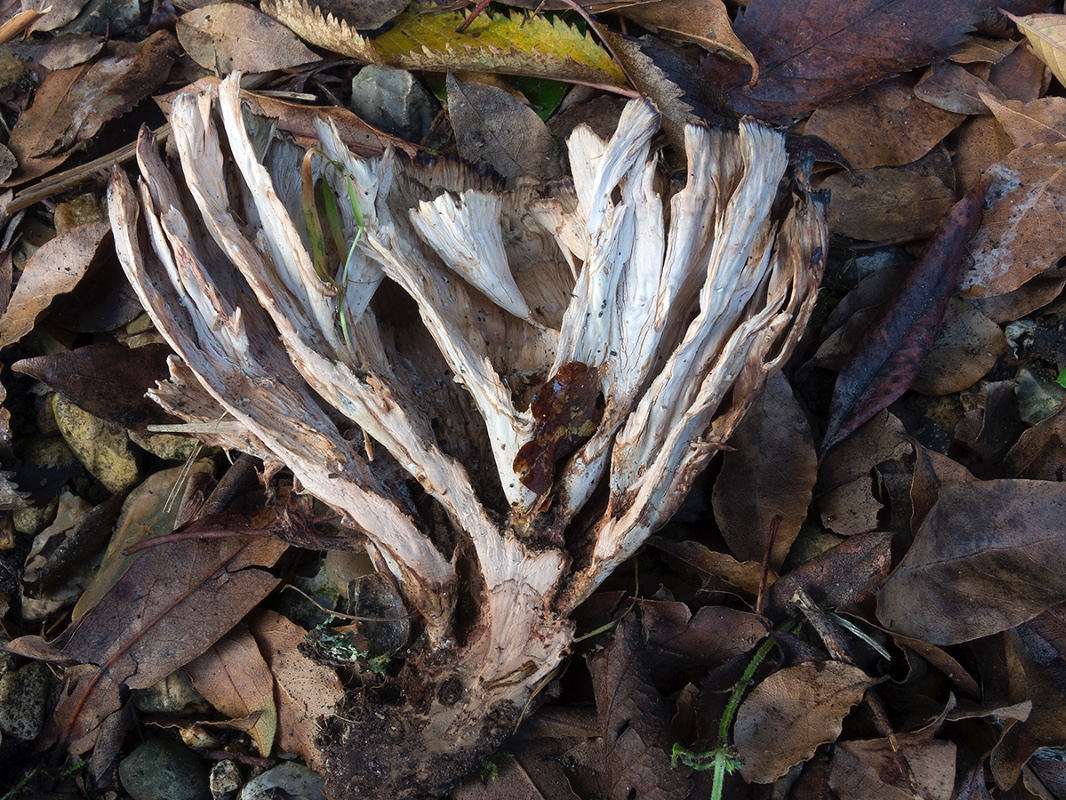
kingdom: Fungi
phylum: Basidiomycota
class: Agaricomycetes
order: Polyporales
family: Podoscyphaceae
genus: Podoscypha
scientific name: Podoscypha multizonata
